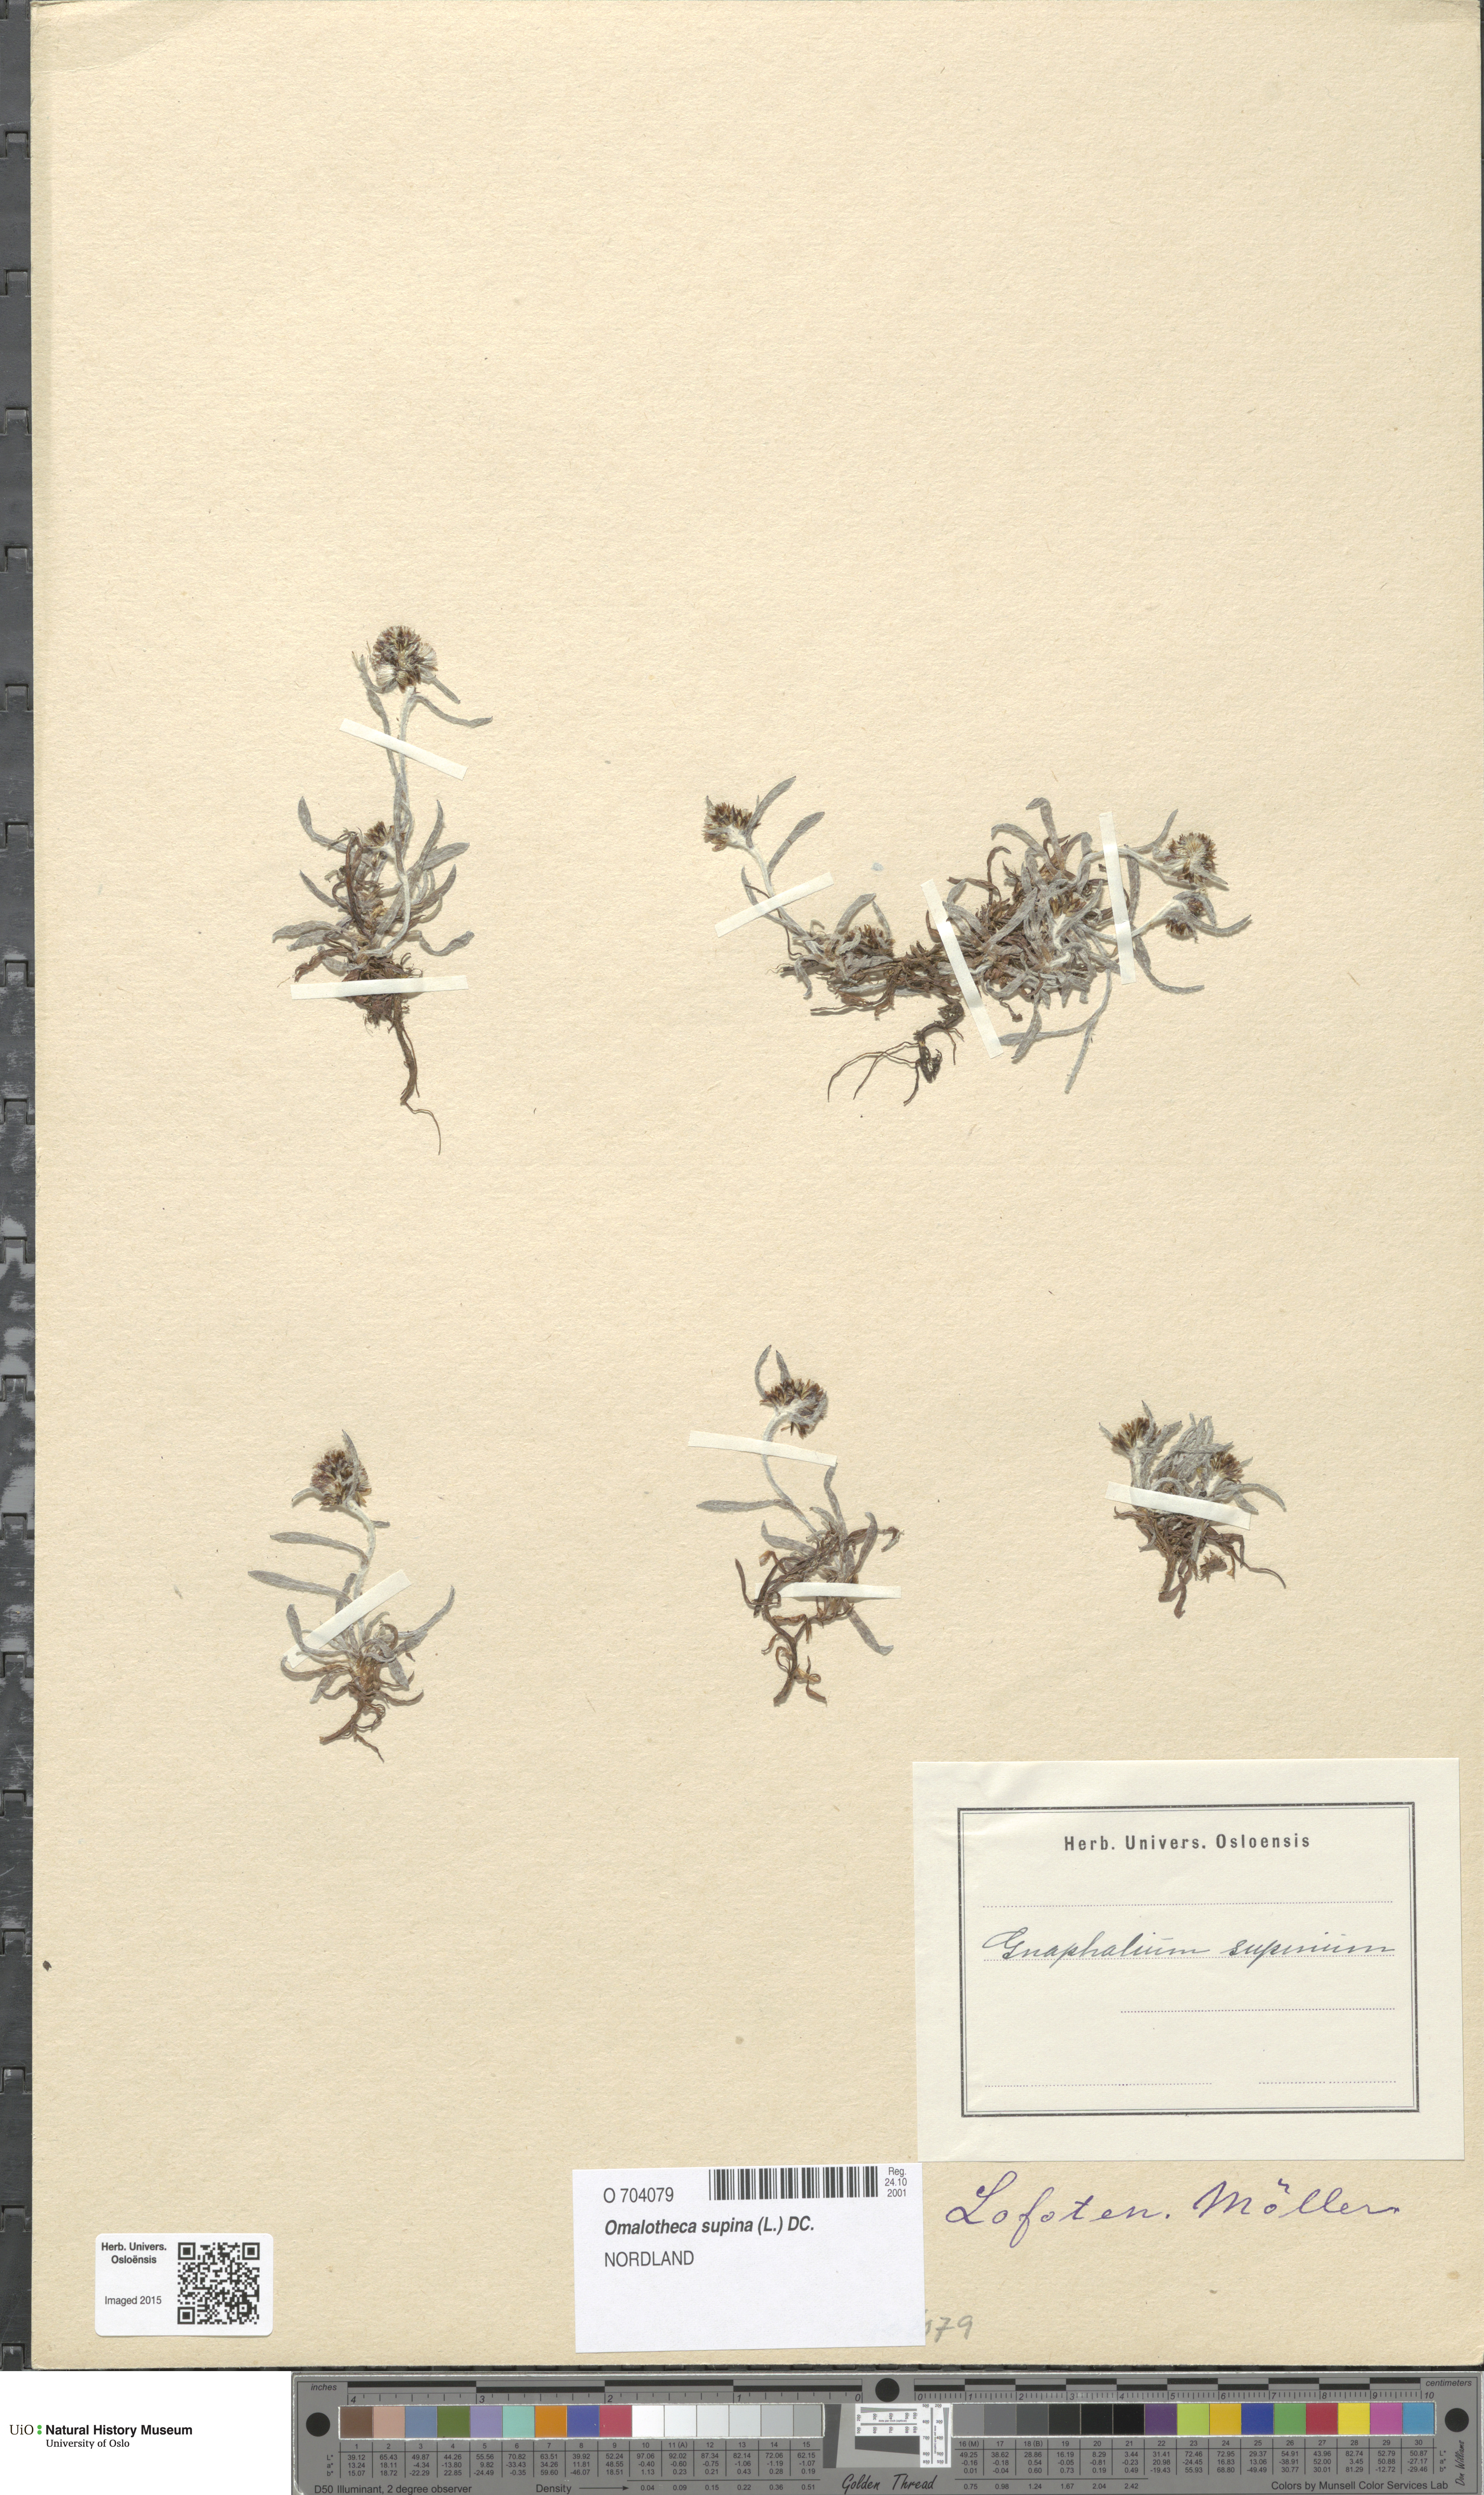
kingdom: Plantae
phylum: Tracheophyta
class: Magnoliopsida
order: Asterales
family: Asteraceae
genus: Omalotheca
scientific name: Omalotheca supina
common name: Alpine arctic-cudweed
